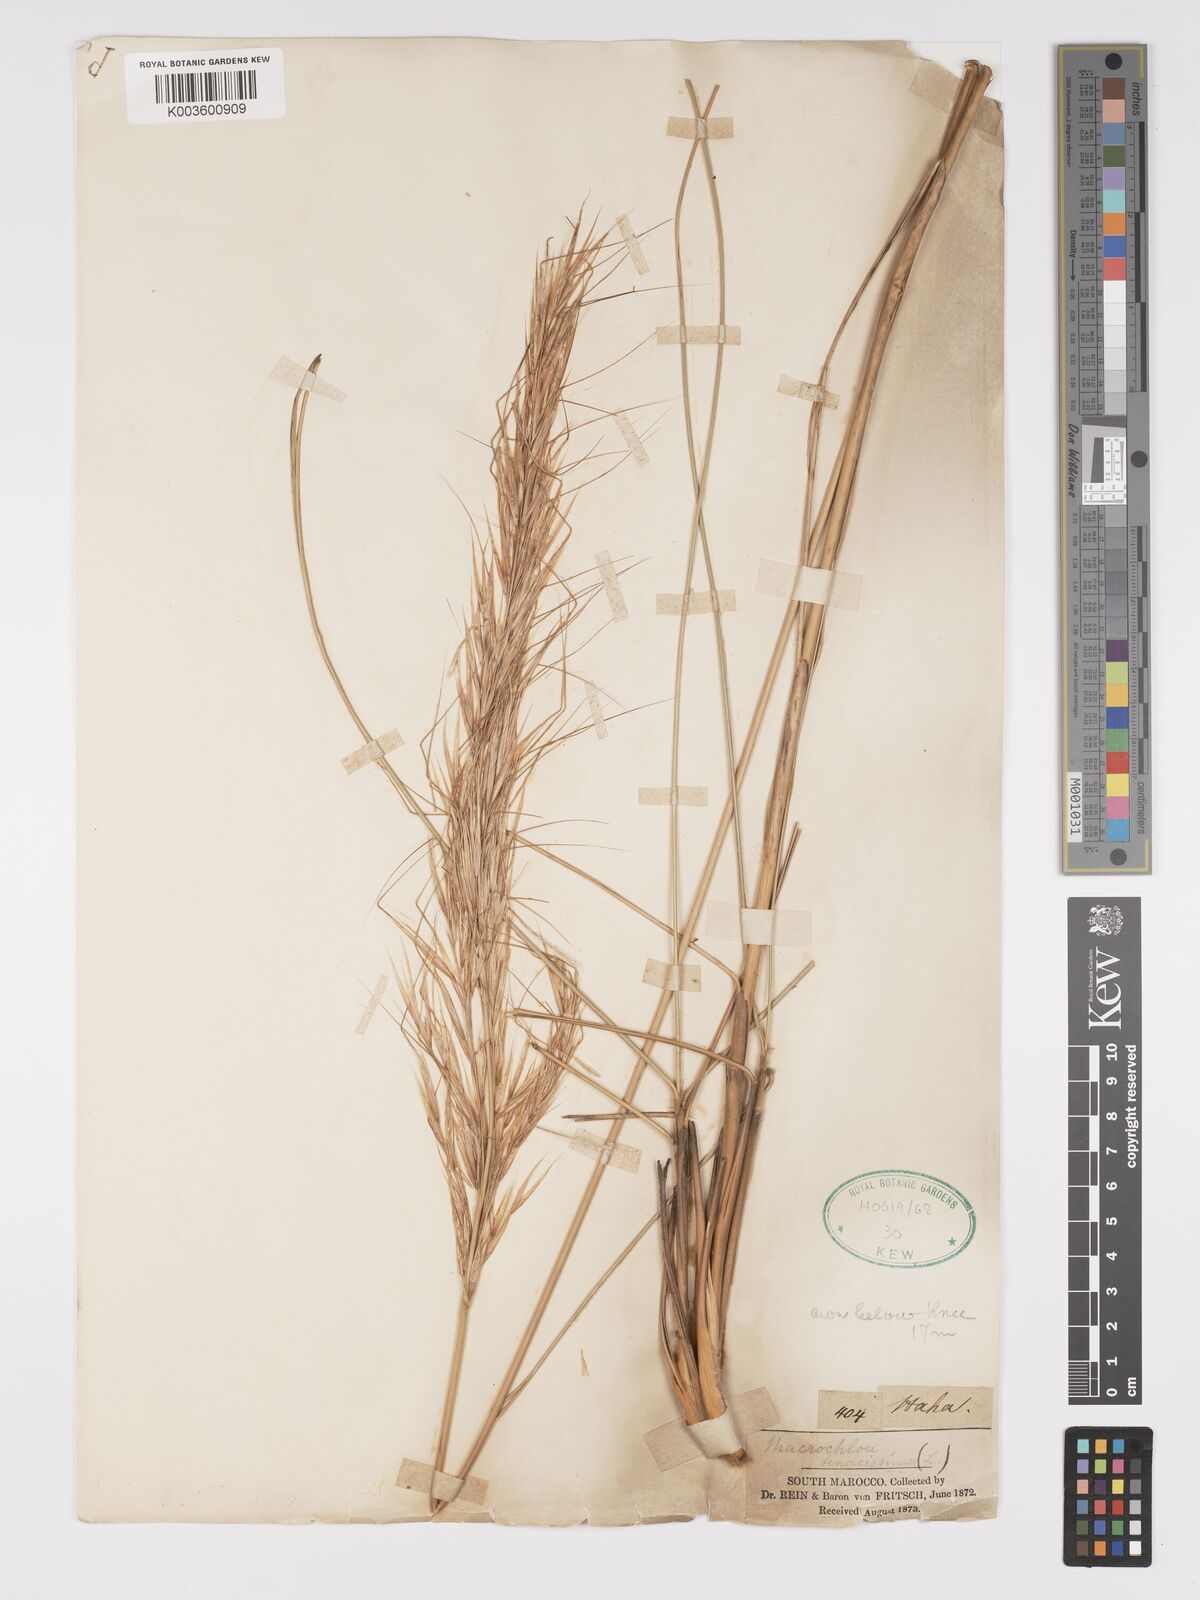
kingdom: Plantae
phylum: Tracheophyta
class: Liliopsida
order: Poales
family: Poaceae
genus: Macrochloa
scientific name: Macrochloa tenacissima
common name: Alfa grass
